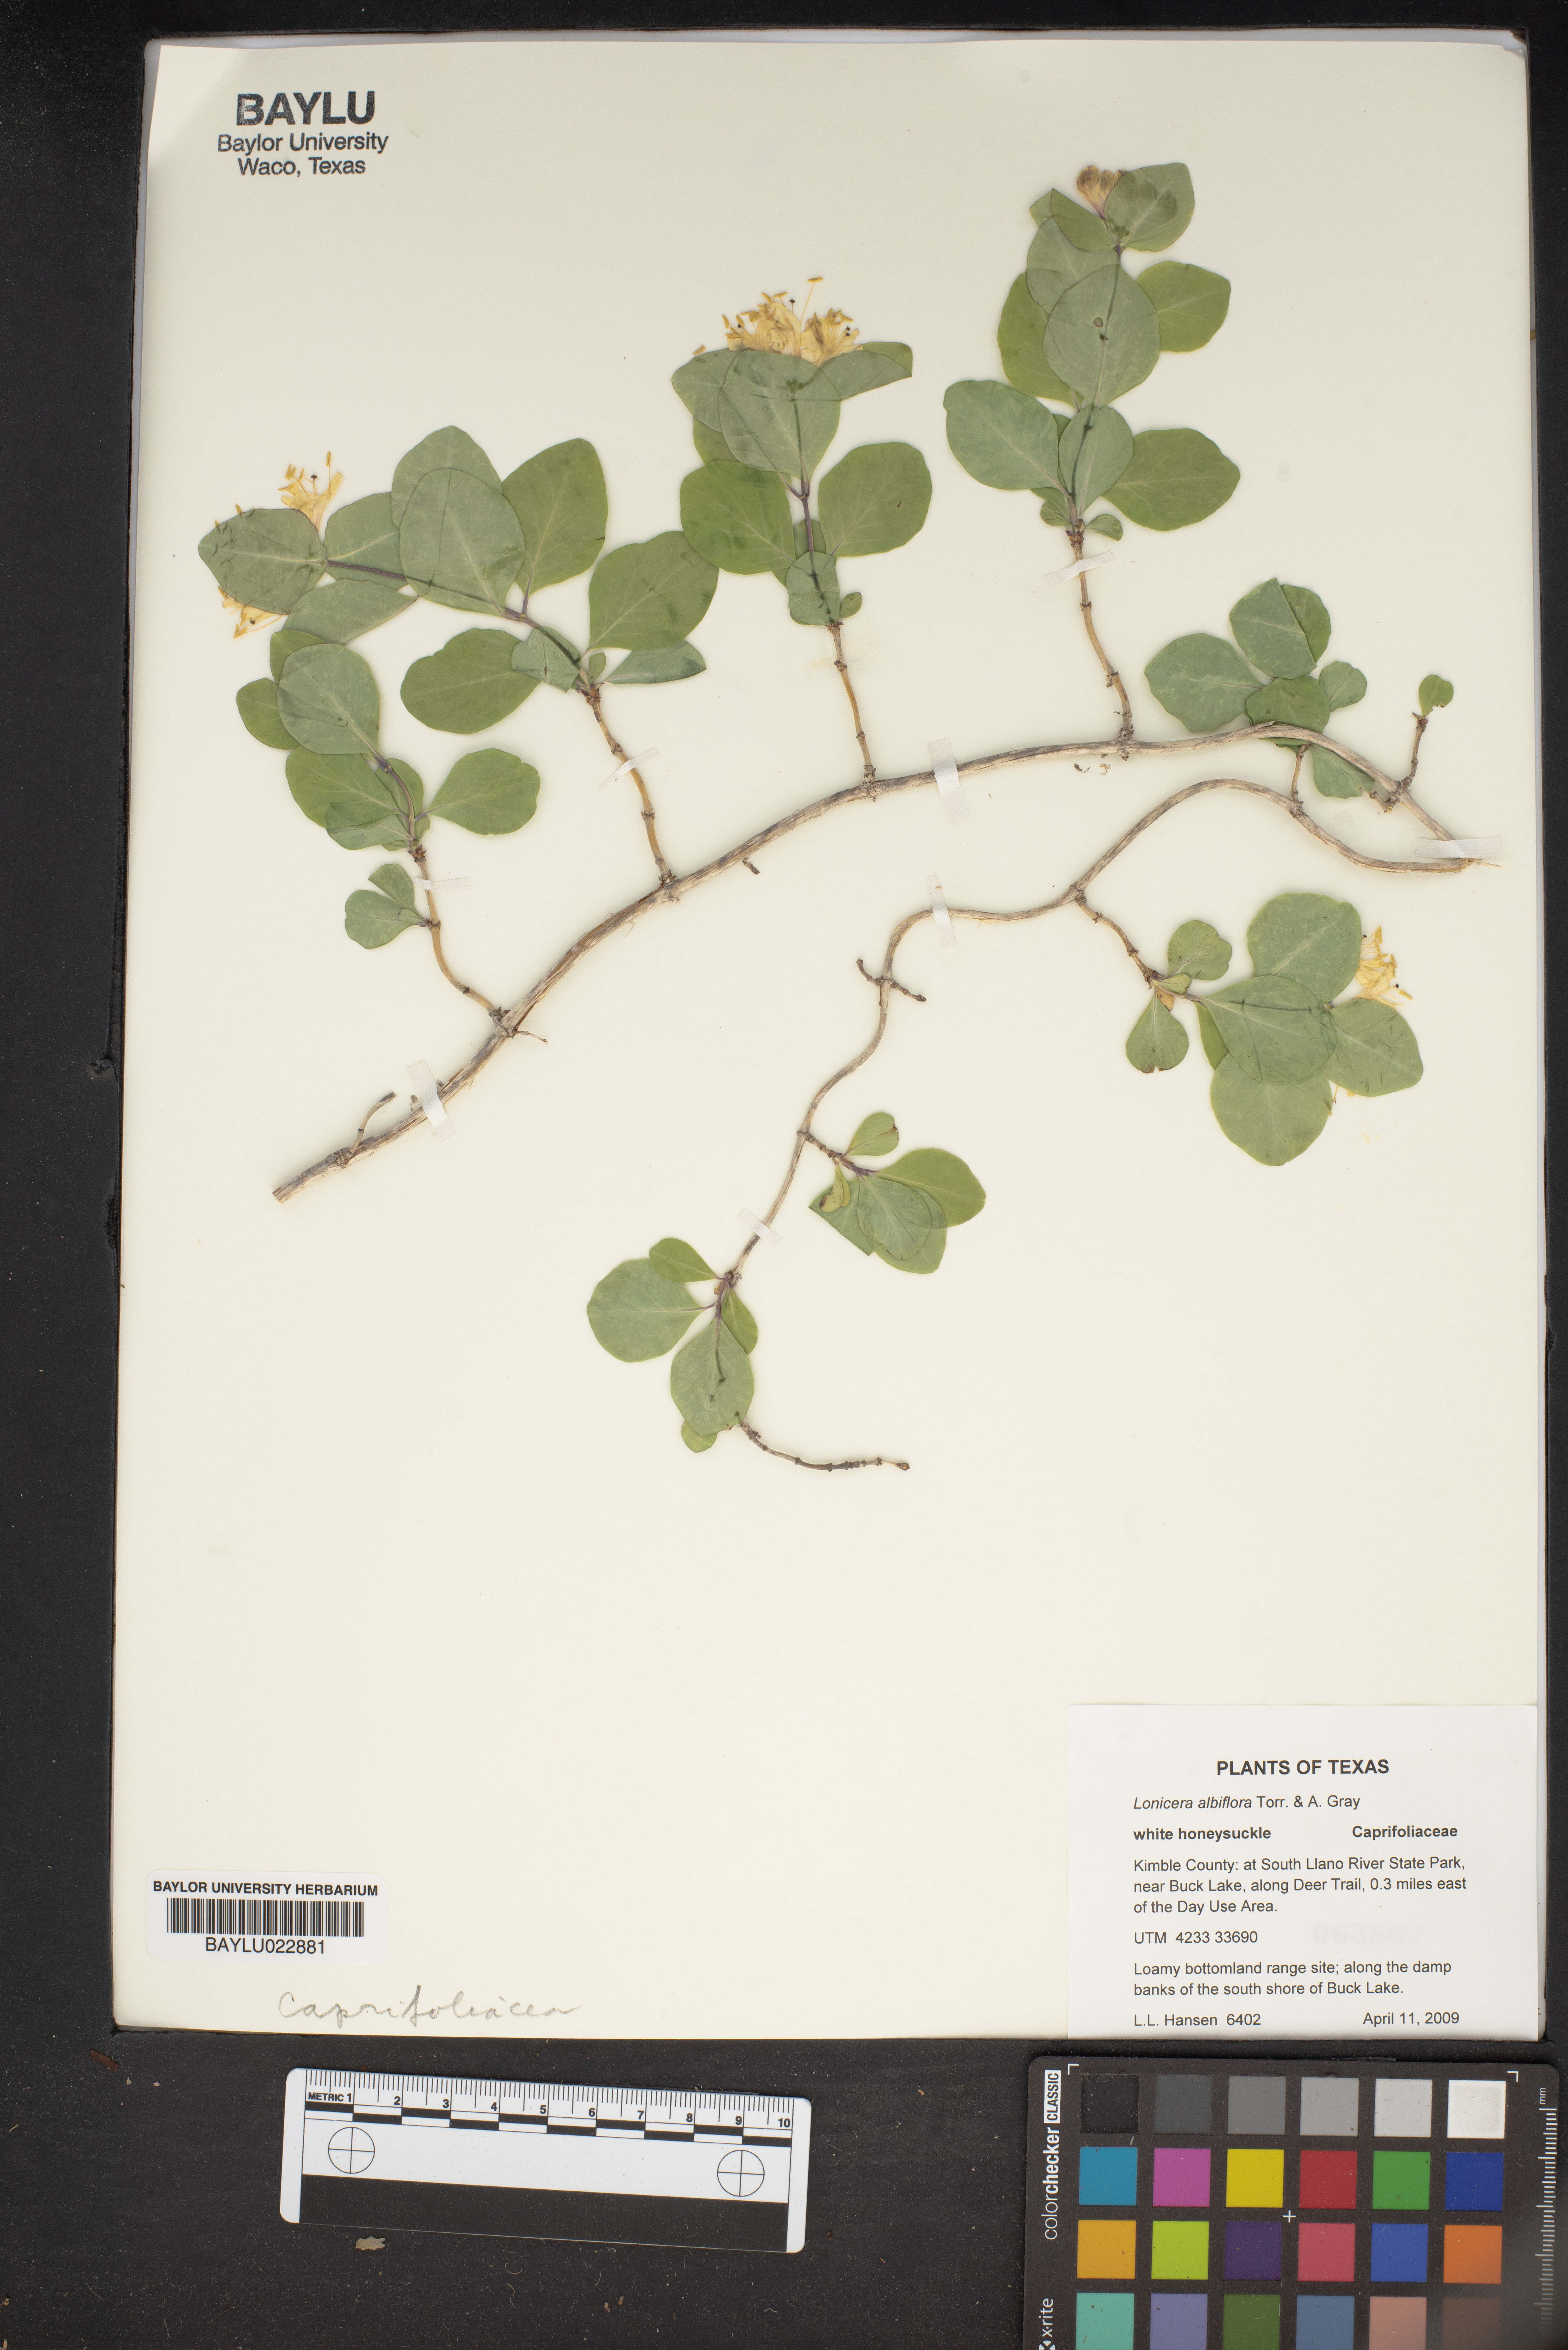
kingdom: Plantae
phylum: Tracheophyta
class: Magnoliopsida
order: Dipsacales
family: Caprifoliaceae
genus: Lonicera
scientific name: Lonicera albiflora
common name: White honeysuckle
